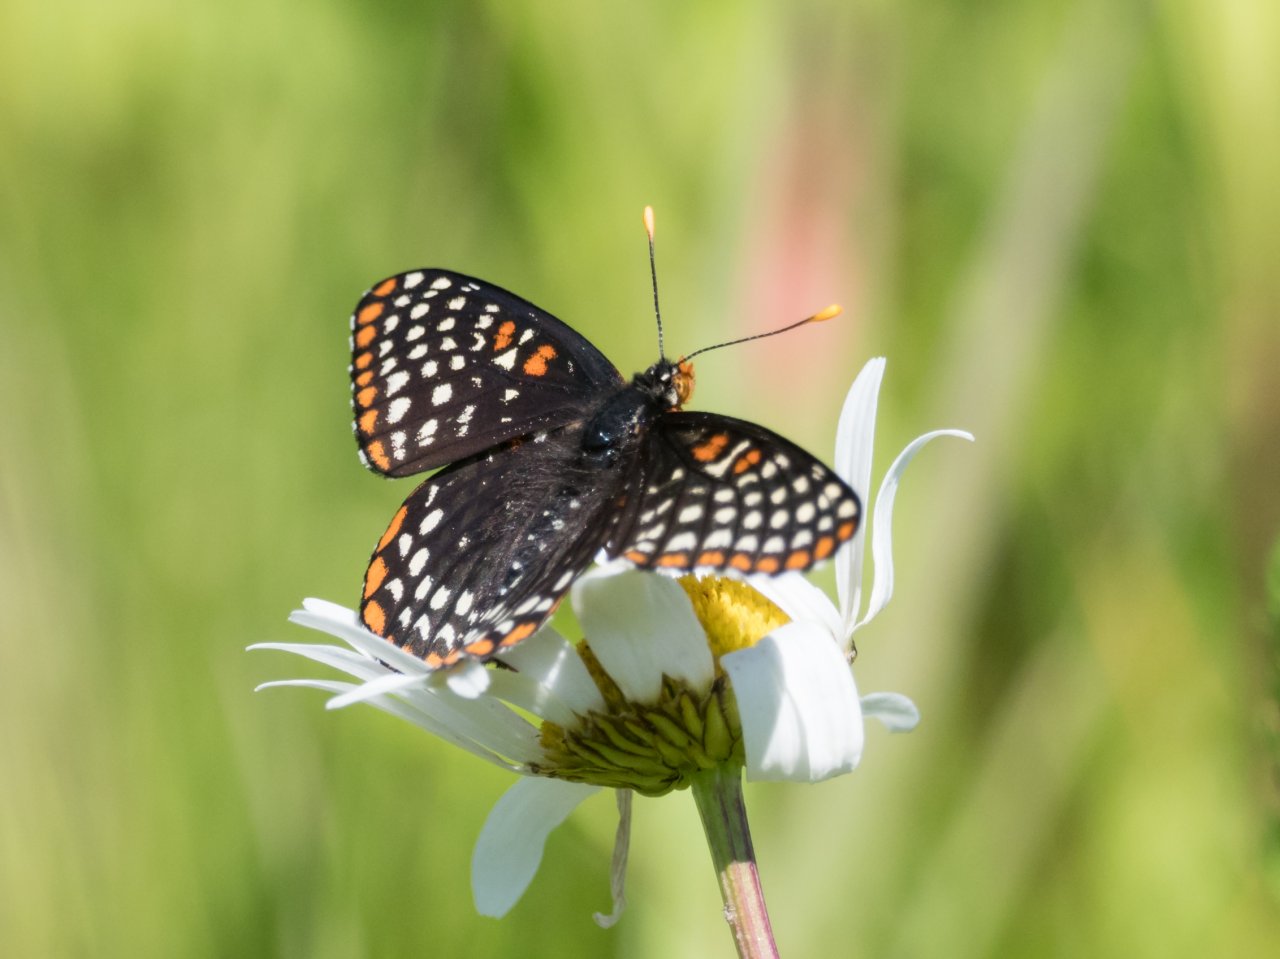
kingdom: Animalia
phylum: Arthropoda
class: Insecta
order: Lepidoptera
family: Nymphalidae
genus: Euphydryas
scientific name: Euphydryas phaeton
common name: Baltimore Checkerspot
